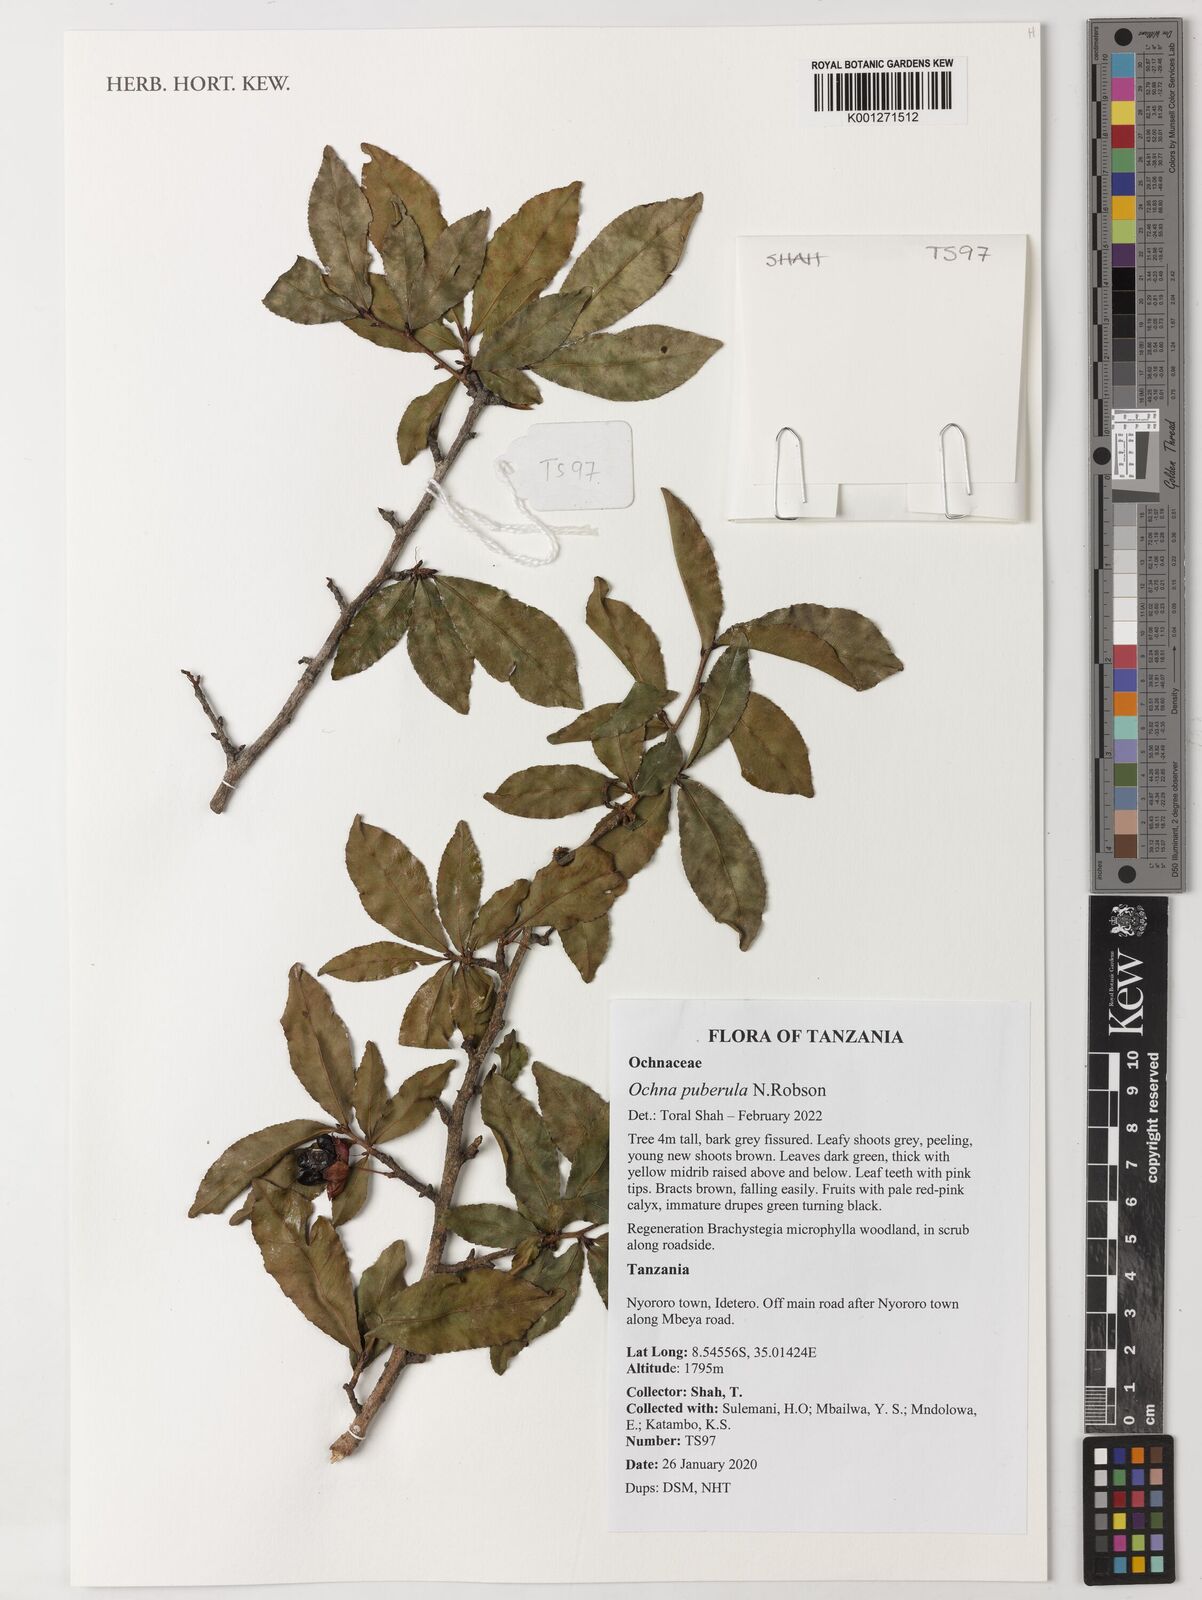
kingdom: Plantae
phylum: Tracheophyta
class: Magnoliopsida
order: Malpighiales
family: Ochnaceae
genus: Ochna
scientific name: Ochna puberula
